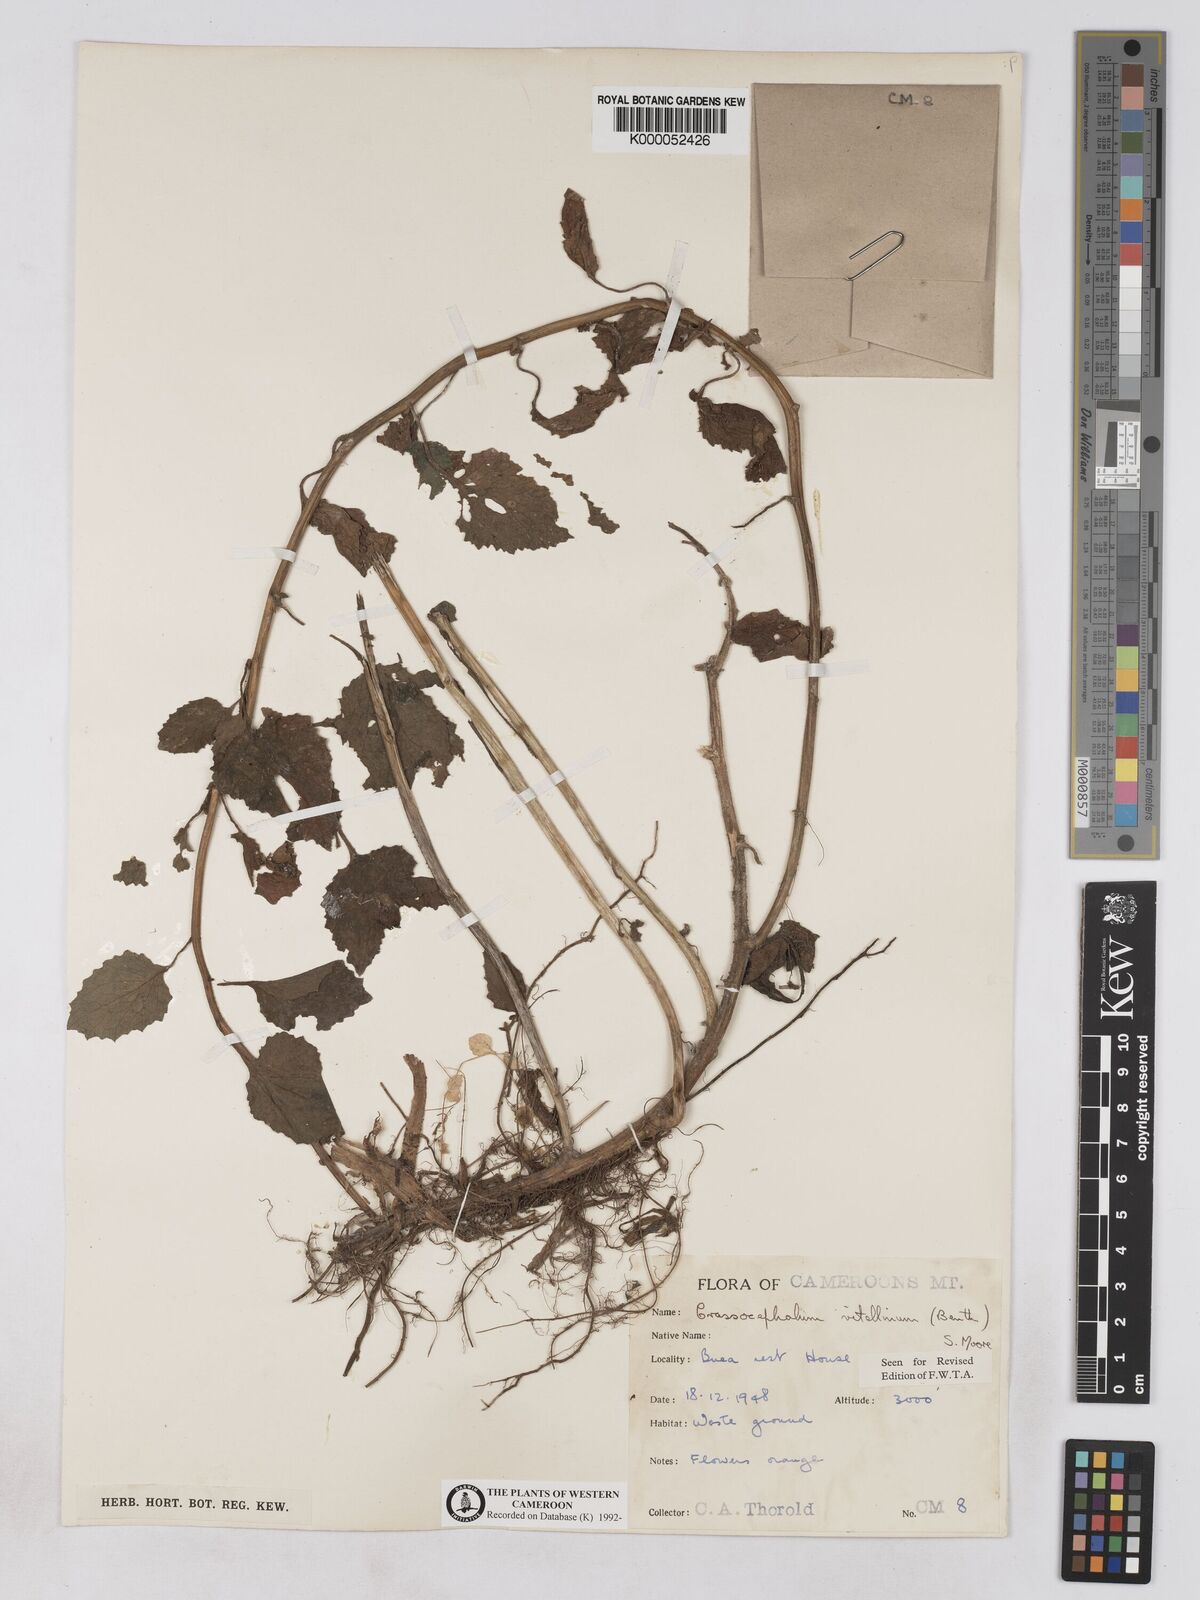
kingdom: Plantae
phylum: Tracheophyta
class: Magnoliopsida
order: Asterales
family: Asteraceae
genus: Crassocephalum
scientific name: Crassocephalum vitellinum
